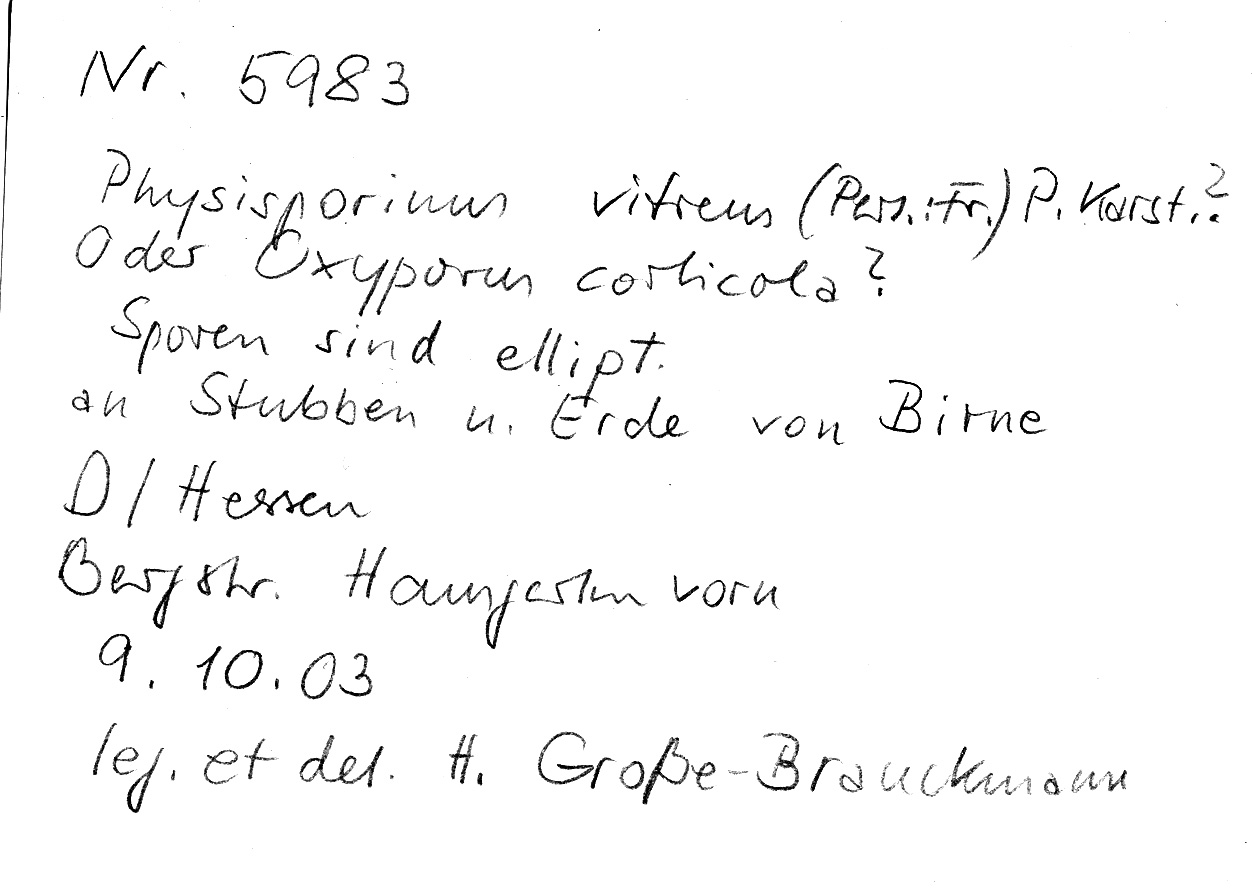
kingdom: Fungi
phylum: Basidiomycota
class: Agaricomycetes
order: Polyporales
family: Meruliaceae
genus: Physisporinus
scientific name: Physisporinus vitreus
